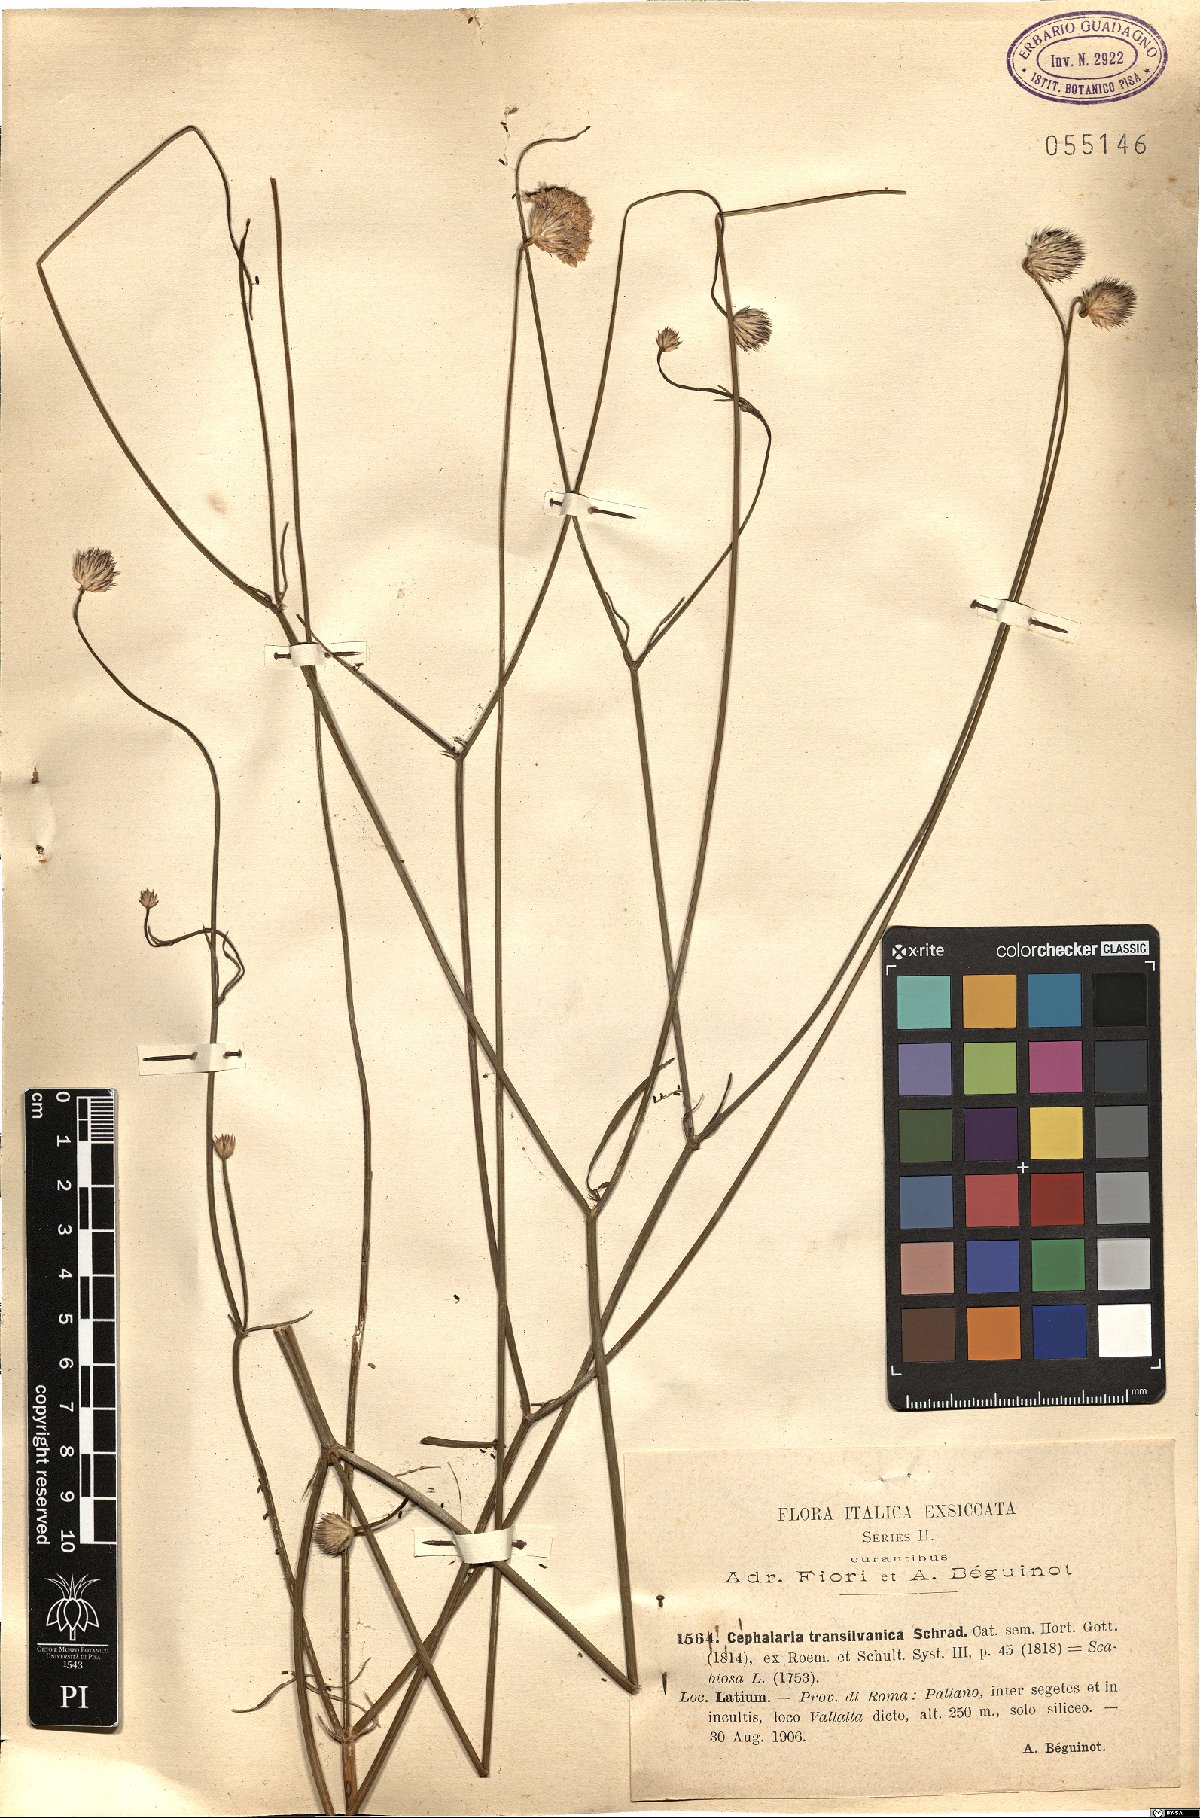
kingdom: Plantae
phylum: Tracheophyta
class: Magnoliopsida
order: Dipsacales
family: Caprifoliaceae
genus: Cephalaria
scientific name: Cephalaria transsylvanica
